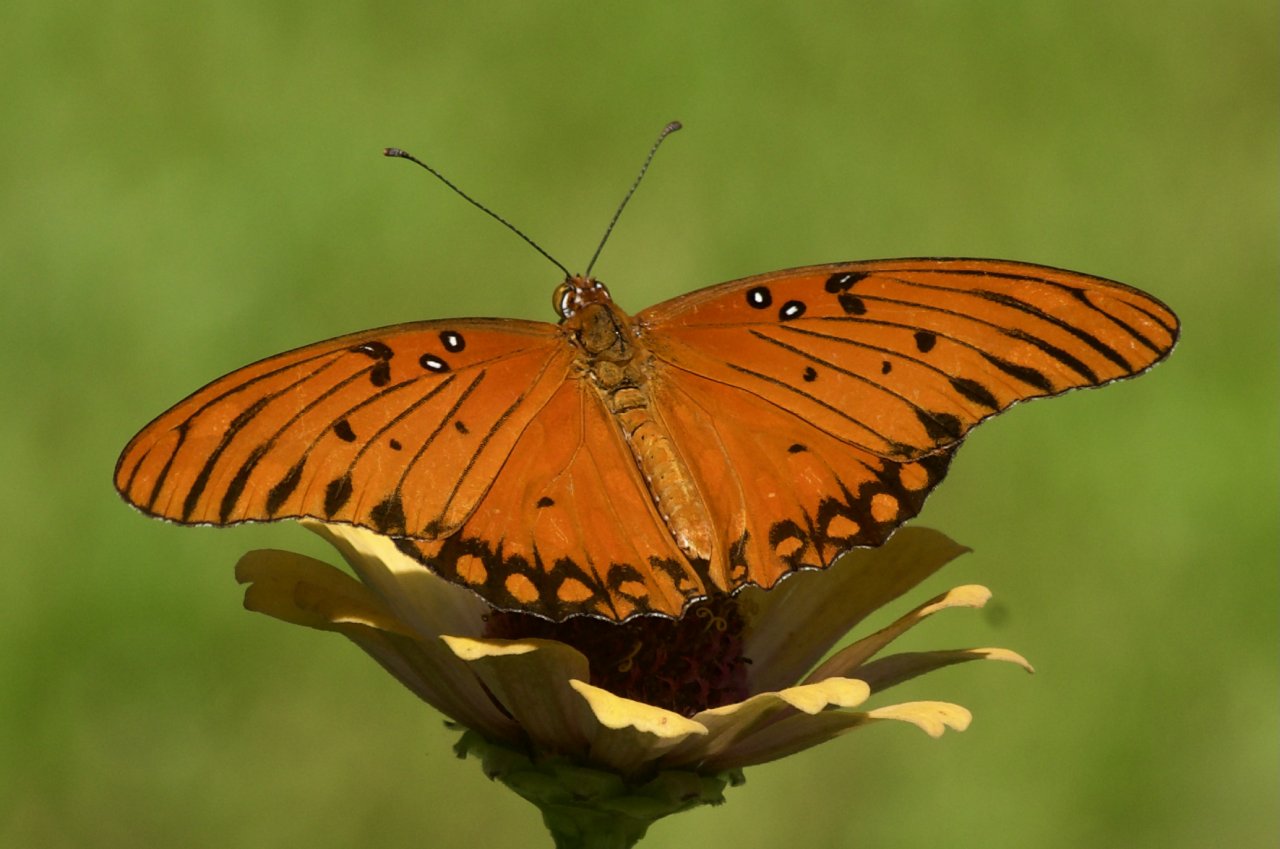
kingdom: Animalia
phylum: Arthropoda
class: Insecta
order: Lepidoptera
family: Nymphalidae
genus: Dione
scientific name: Dione vanillae
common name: Gulf Fritillary
